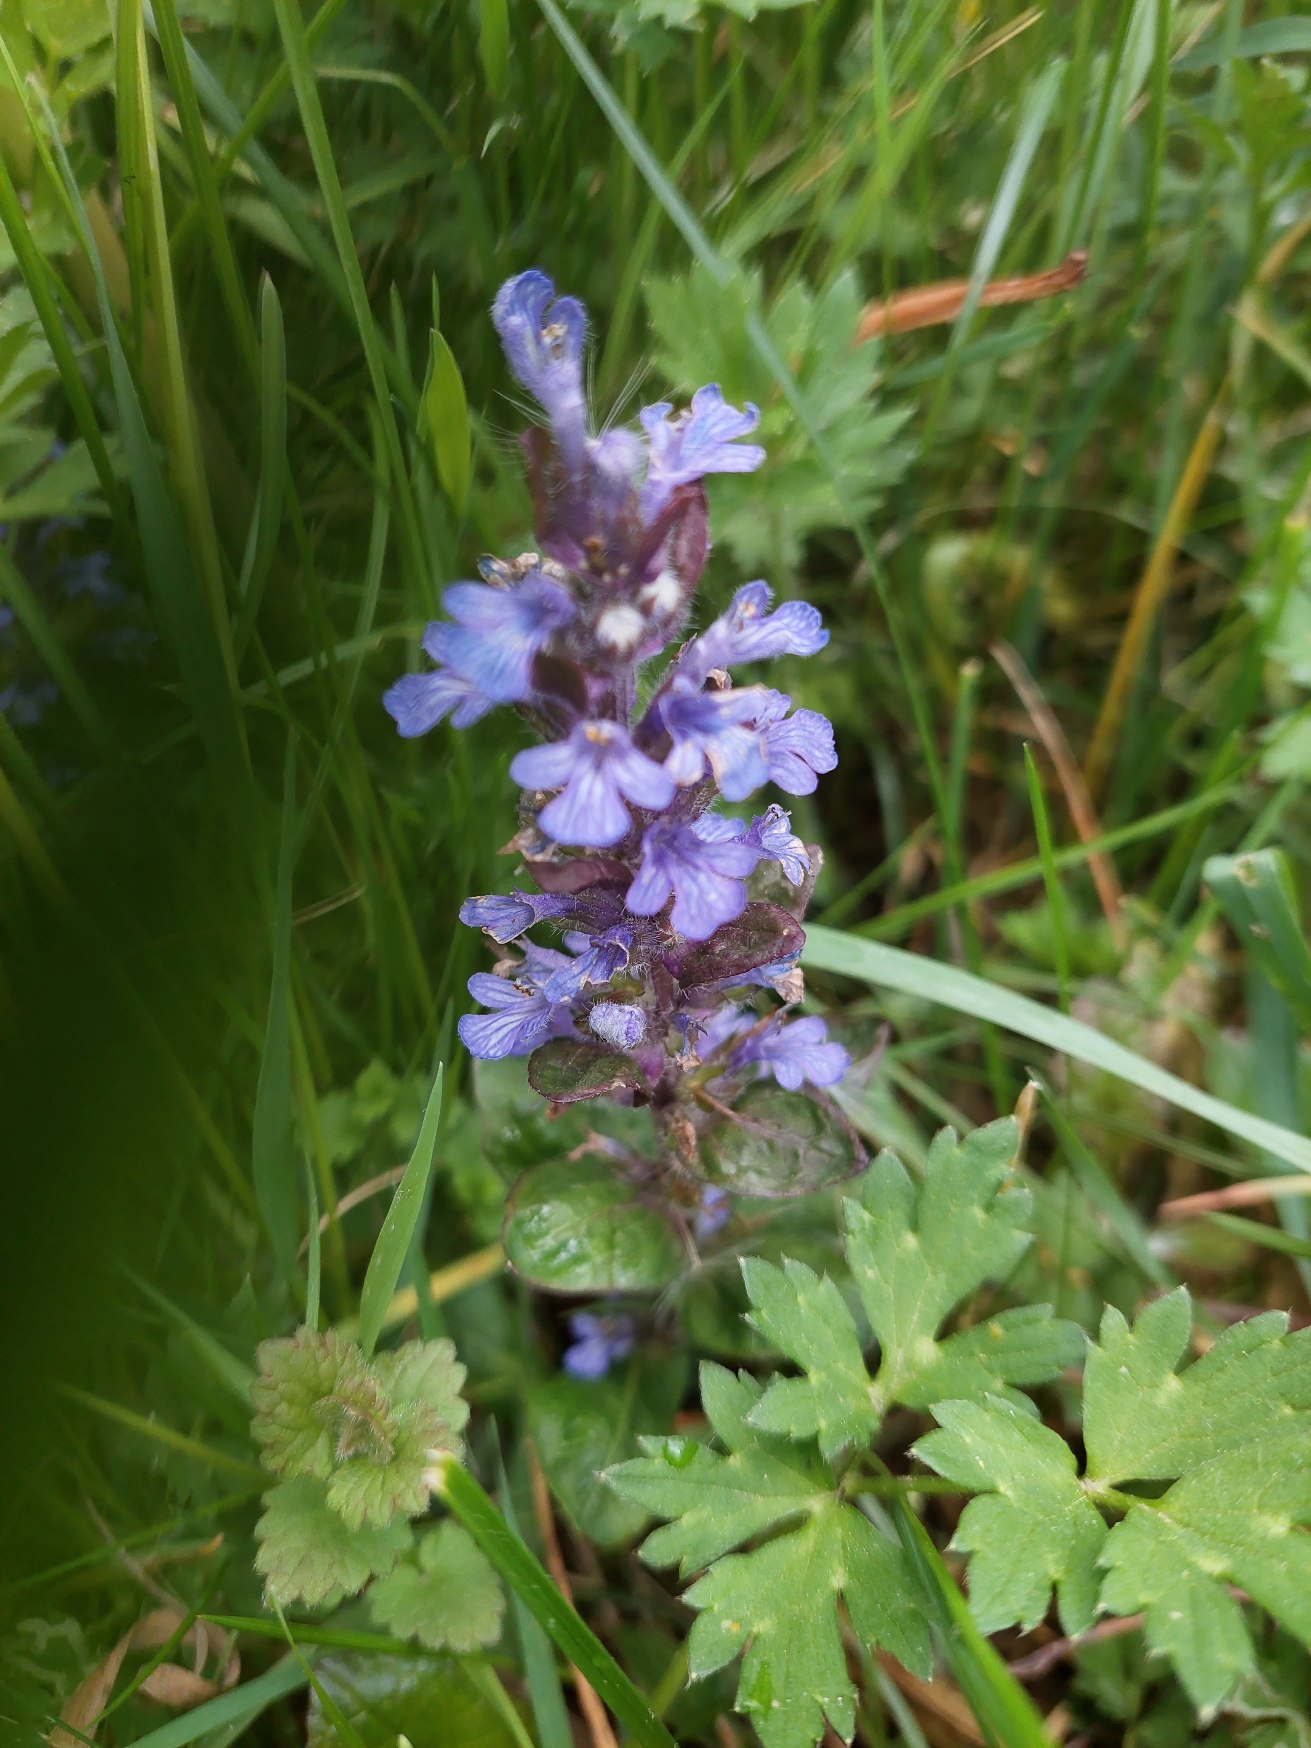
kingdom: Plantae
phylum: Tracheophyta
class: Magnoliopsida
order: Lamiales
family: Lamiaceae
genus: Ajuga
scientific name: Ajuga reptans
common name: Krybende læbeløs
